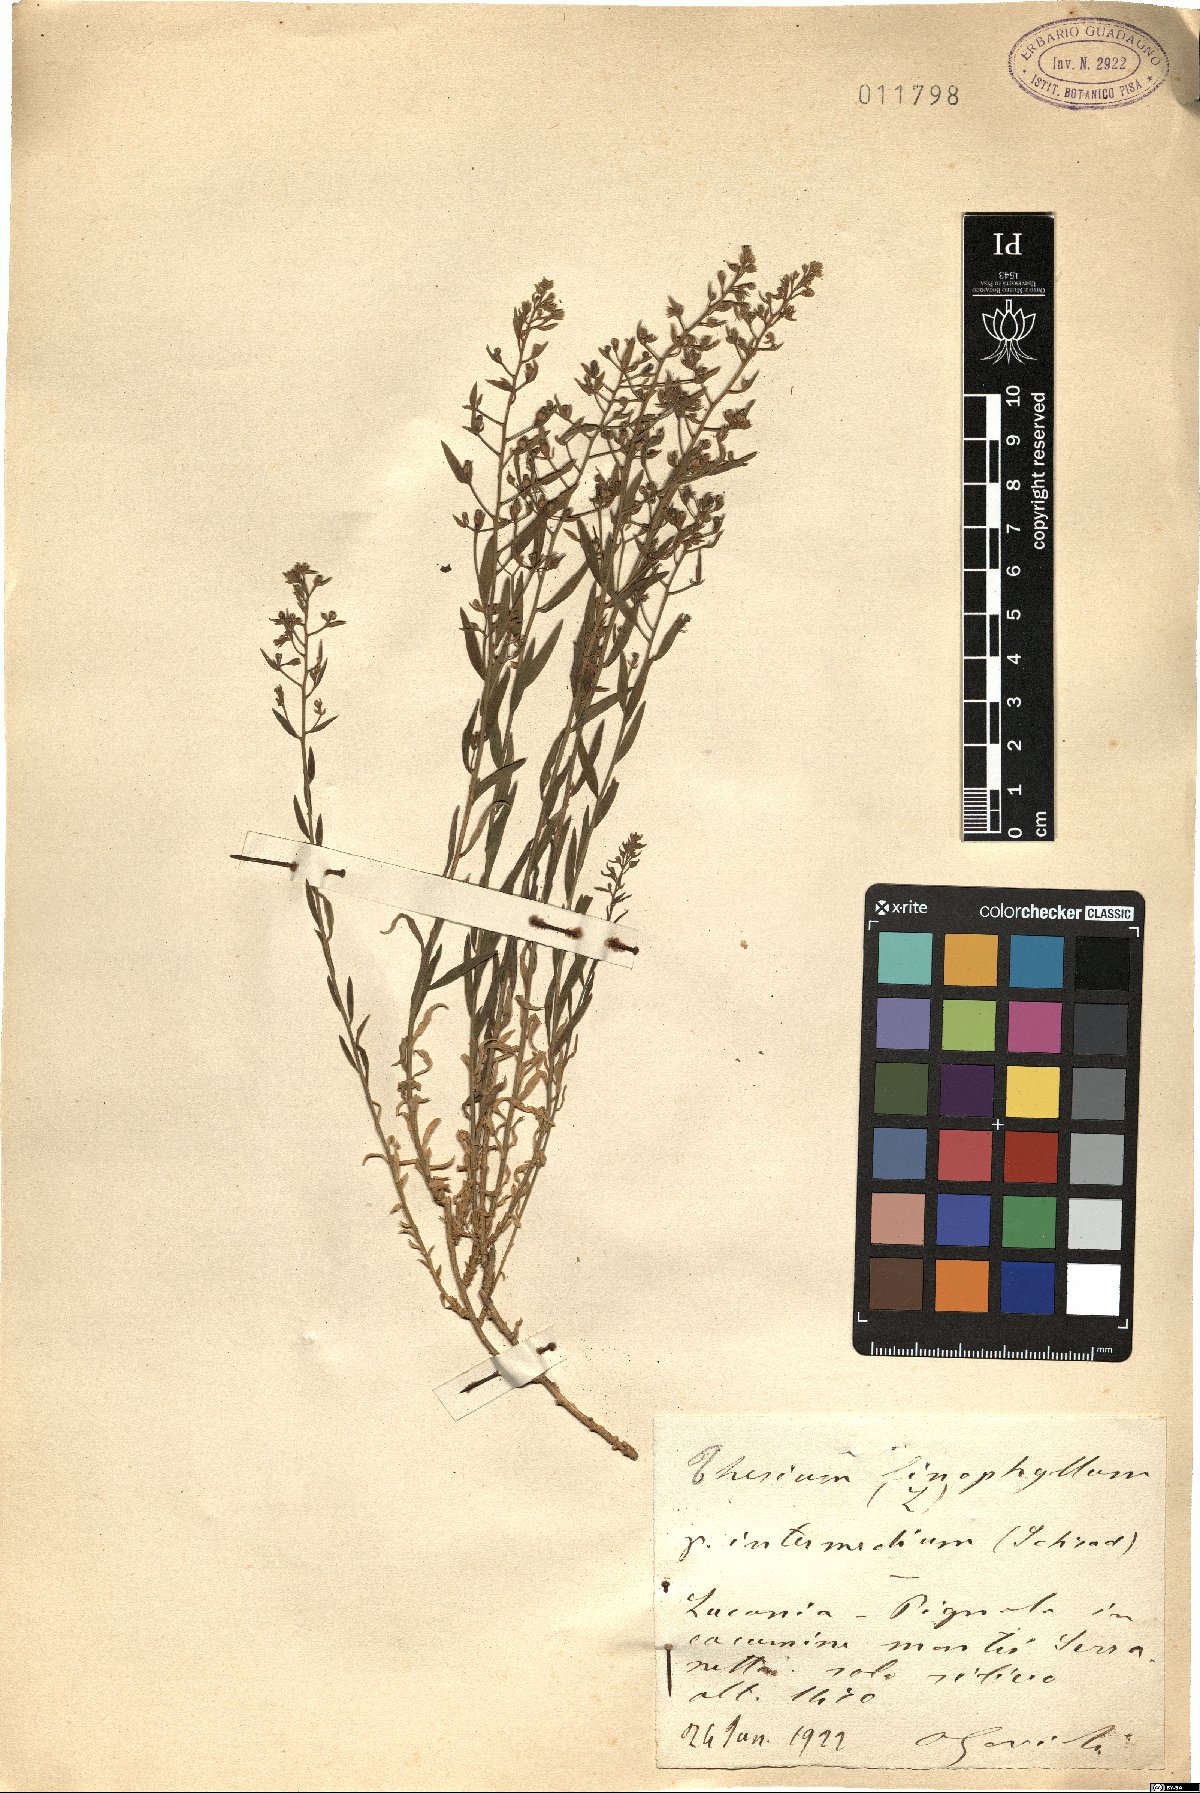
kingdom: Plantae
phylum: Tracheophyta
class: Magnoliopsida
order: Santalales
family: Thesiaceae
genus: Thesium
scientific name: Thesium linophyllon
